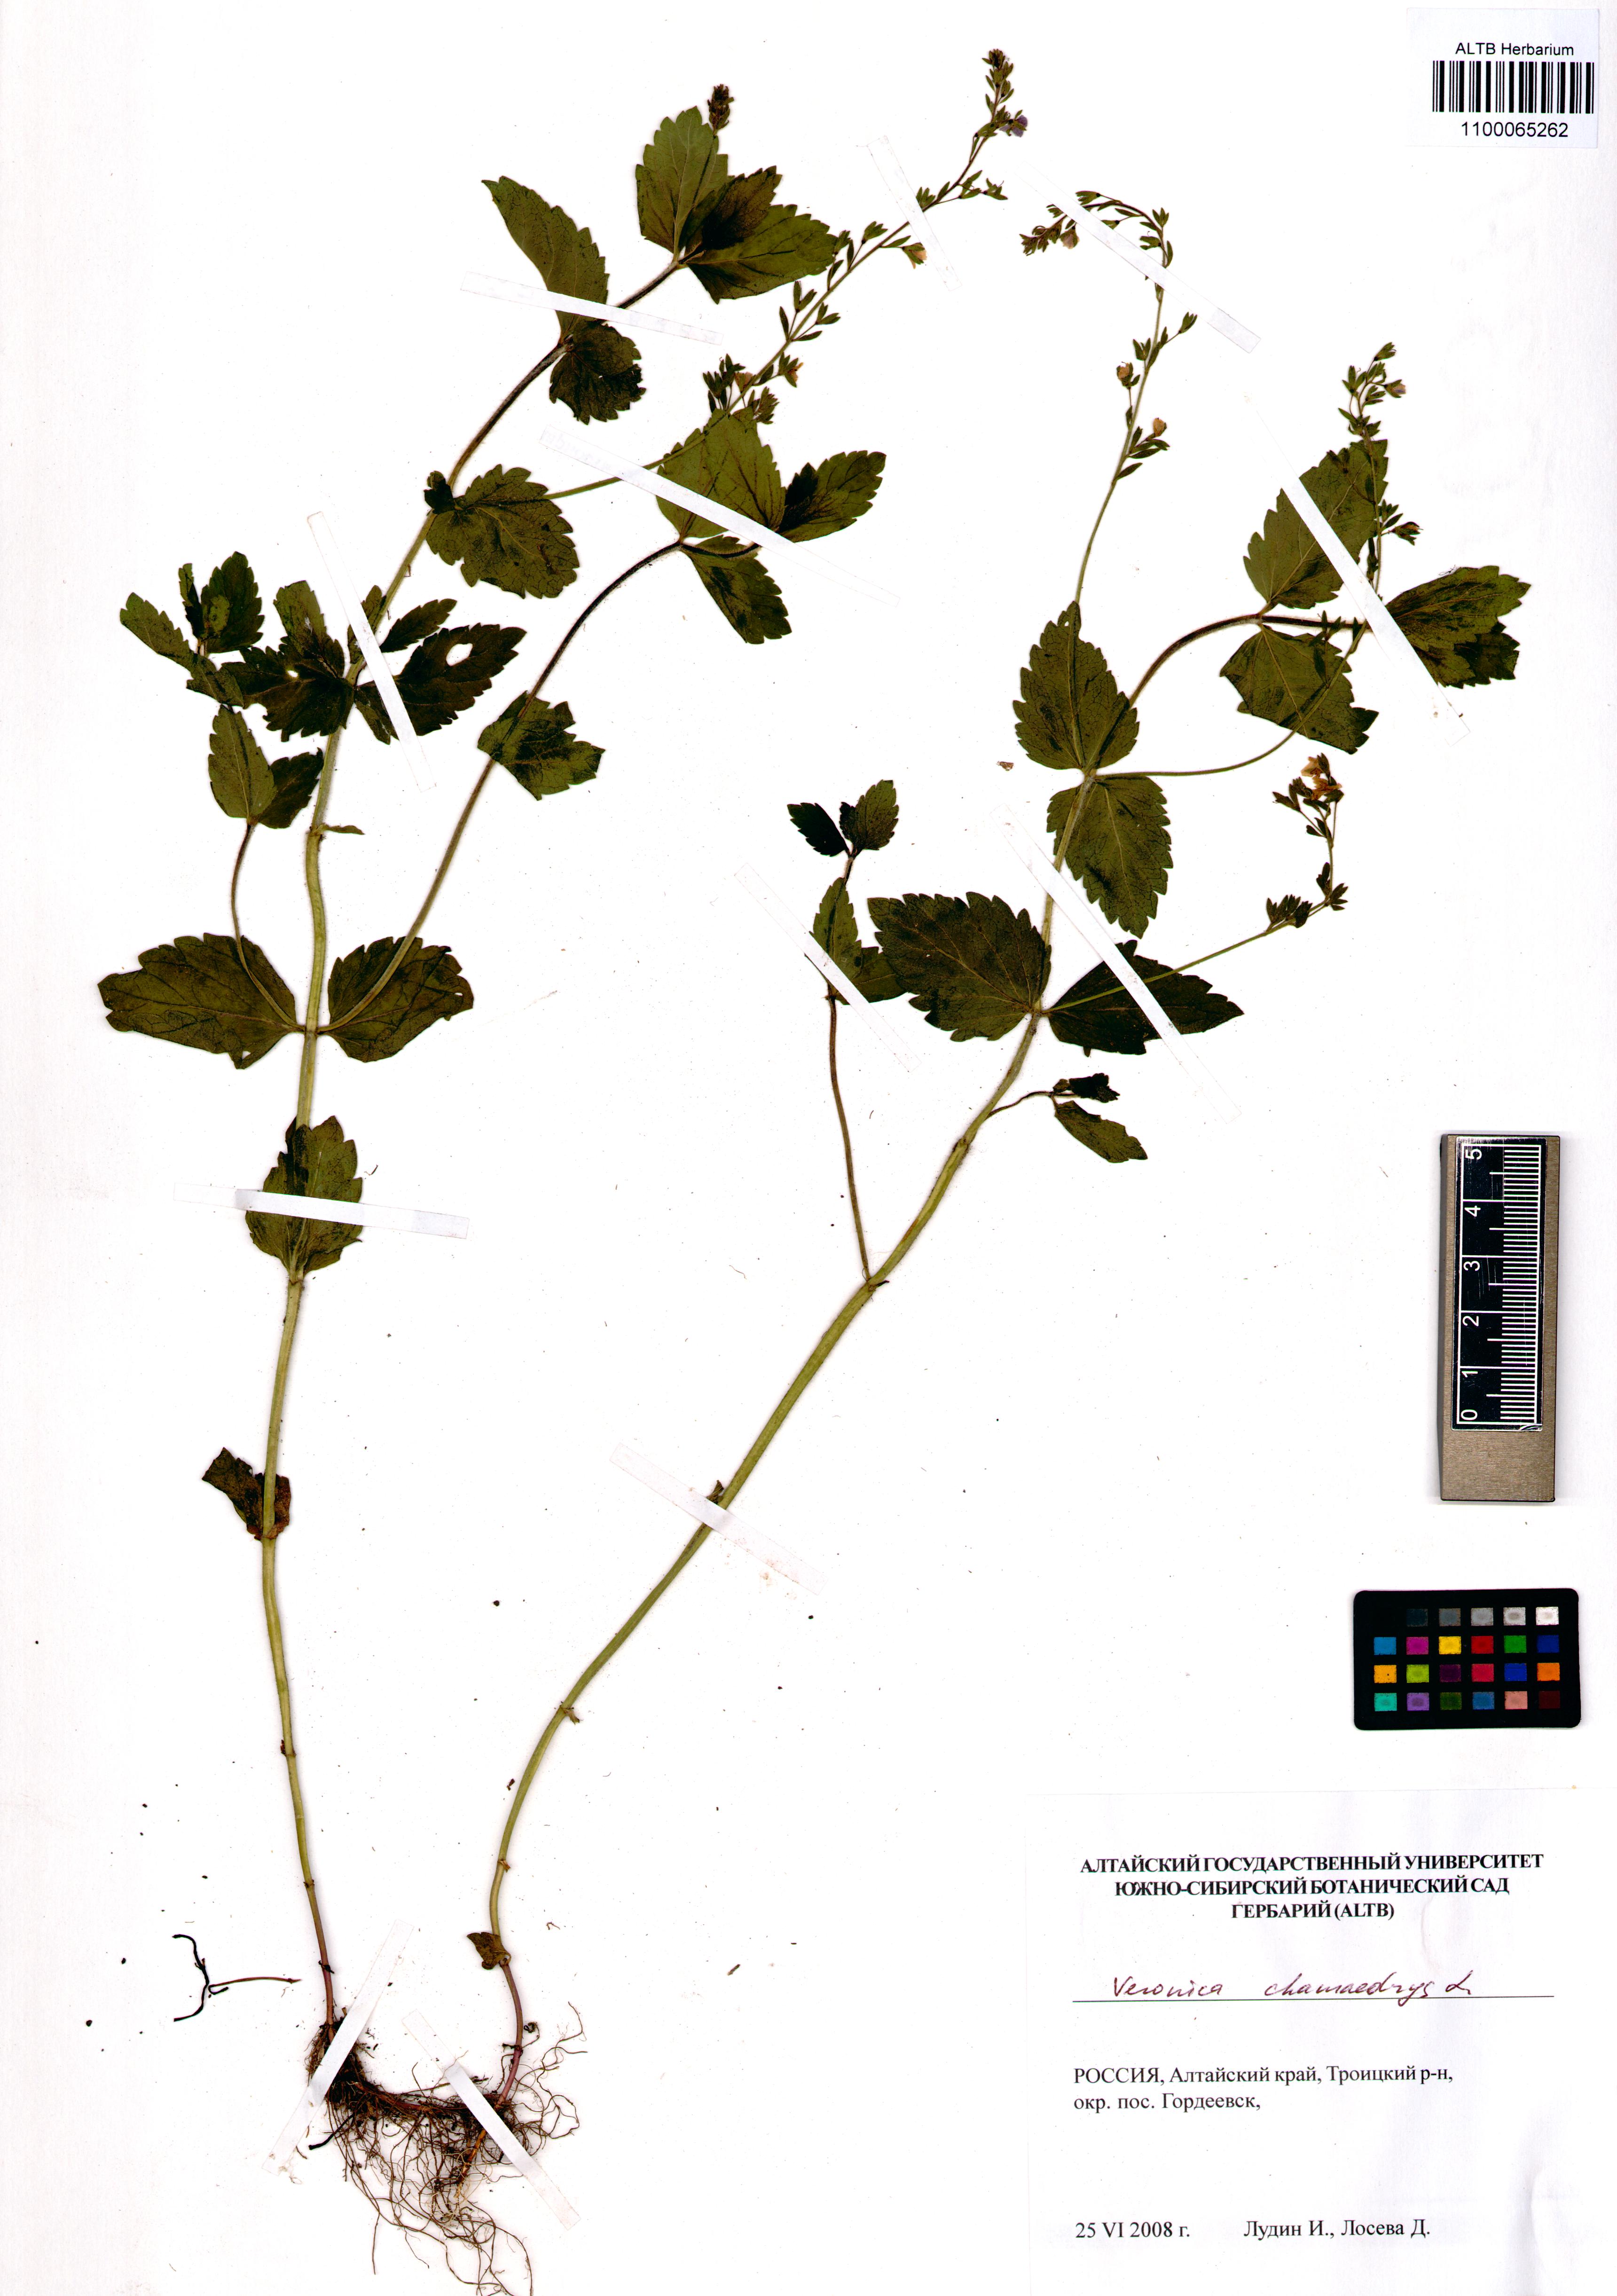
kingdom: Plantae
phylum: Tracheophyta
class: Magnoliopsida
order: Lamiales
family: Plantaginaceae
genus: Veronica
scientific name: Veronica chamaedrys
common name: Germander speedwell
